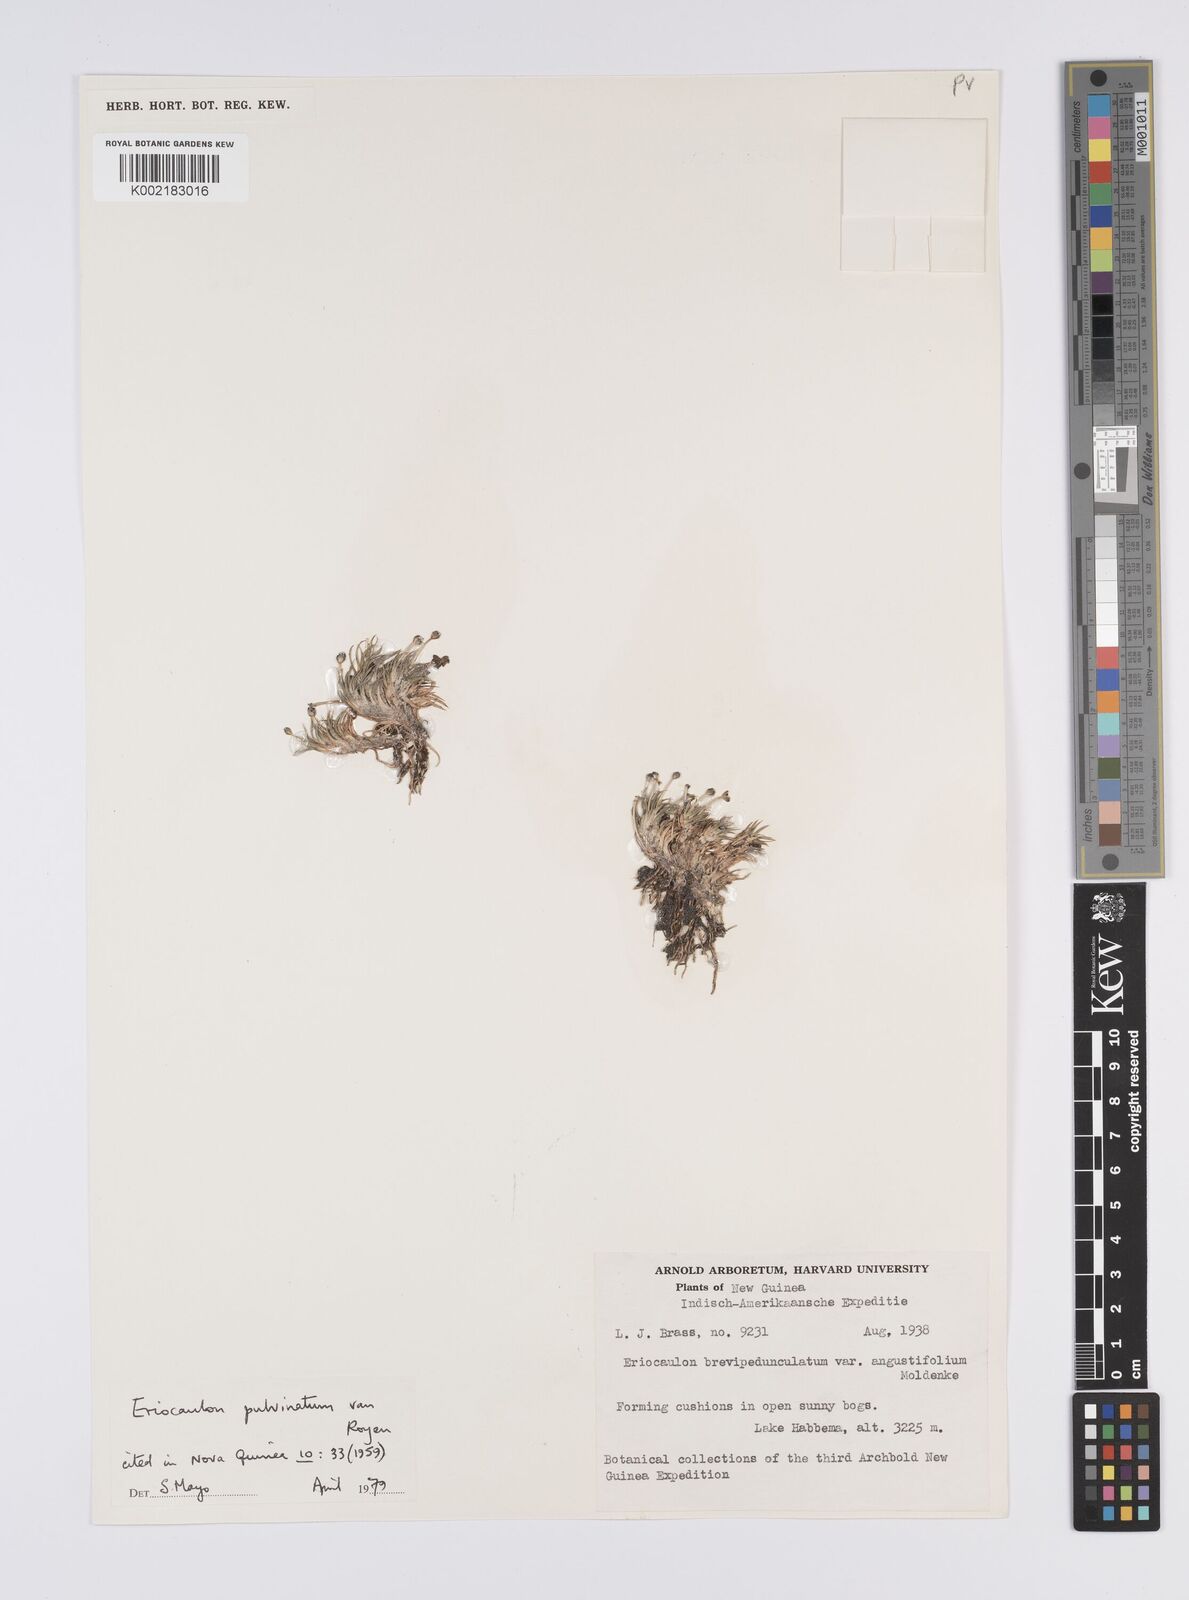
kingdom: Plantae
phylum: Tracheophyta
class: Liliopsida
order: Poales
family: Eriocaulaceae
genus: Eriocaulon
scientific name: Eriocaulon pulvinatum
